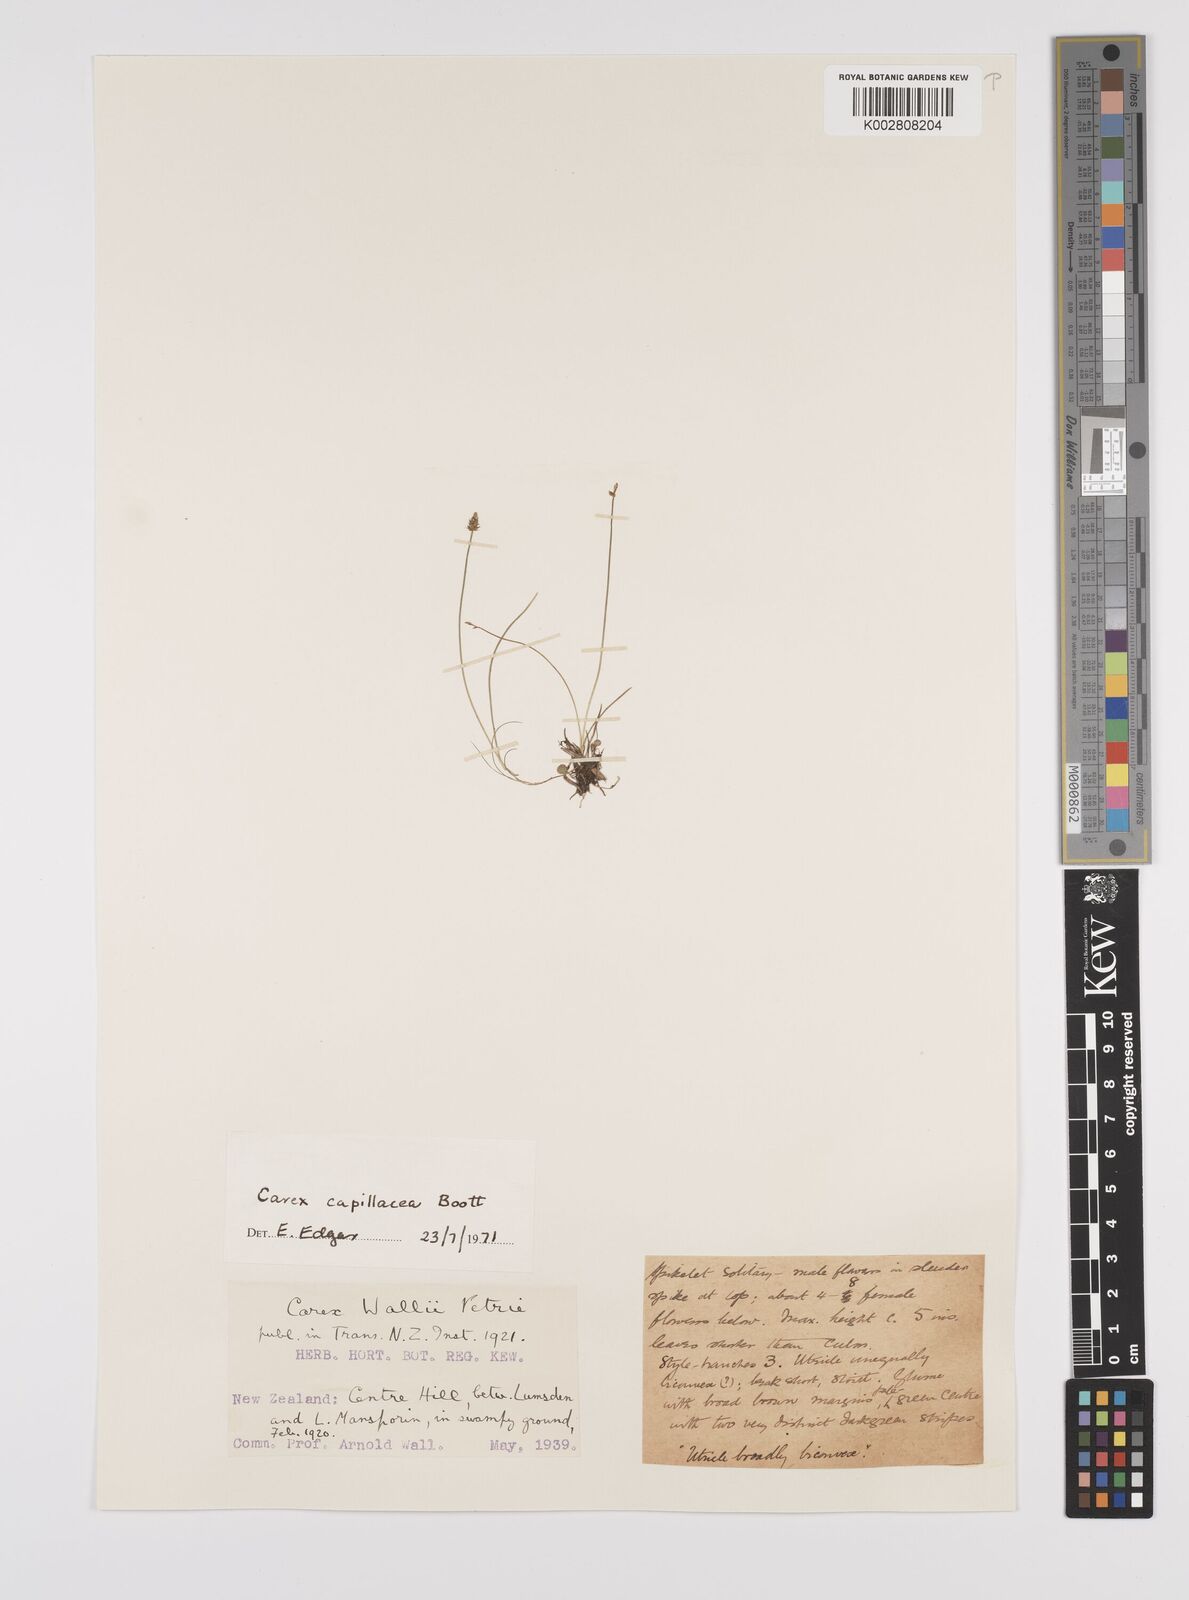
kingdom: Plantae
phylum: Tracheophyta
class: Liliopsida
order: Poales
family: Cyperaceae
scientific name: Cyperaceae
